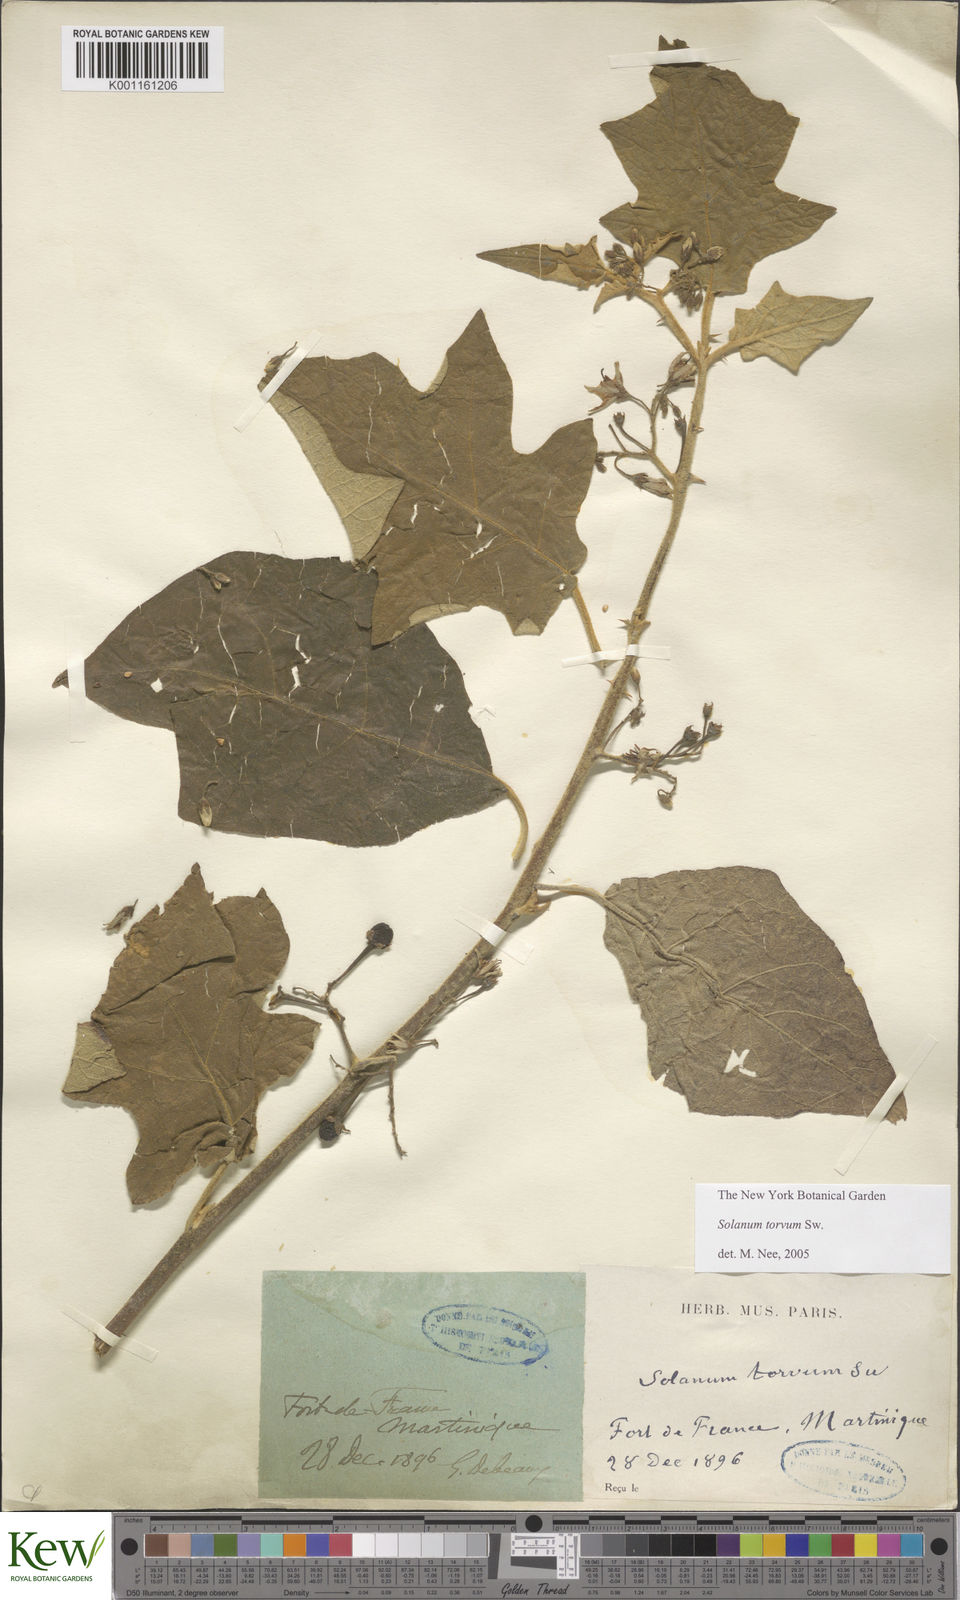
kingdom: Plantae
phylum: Tracheophyta
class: Magnoliopsida
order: Solanales
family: Solanaceae
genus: Solanum
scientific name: Solanum torvum
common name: Turkey berry
